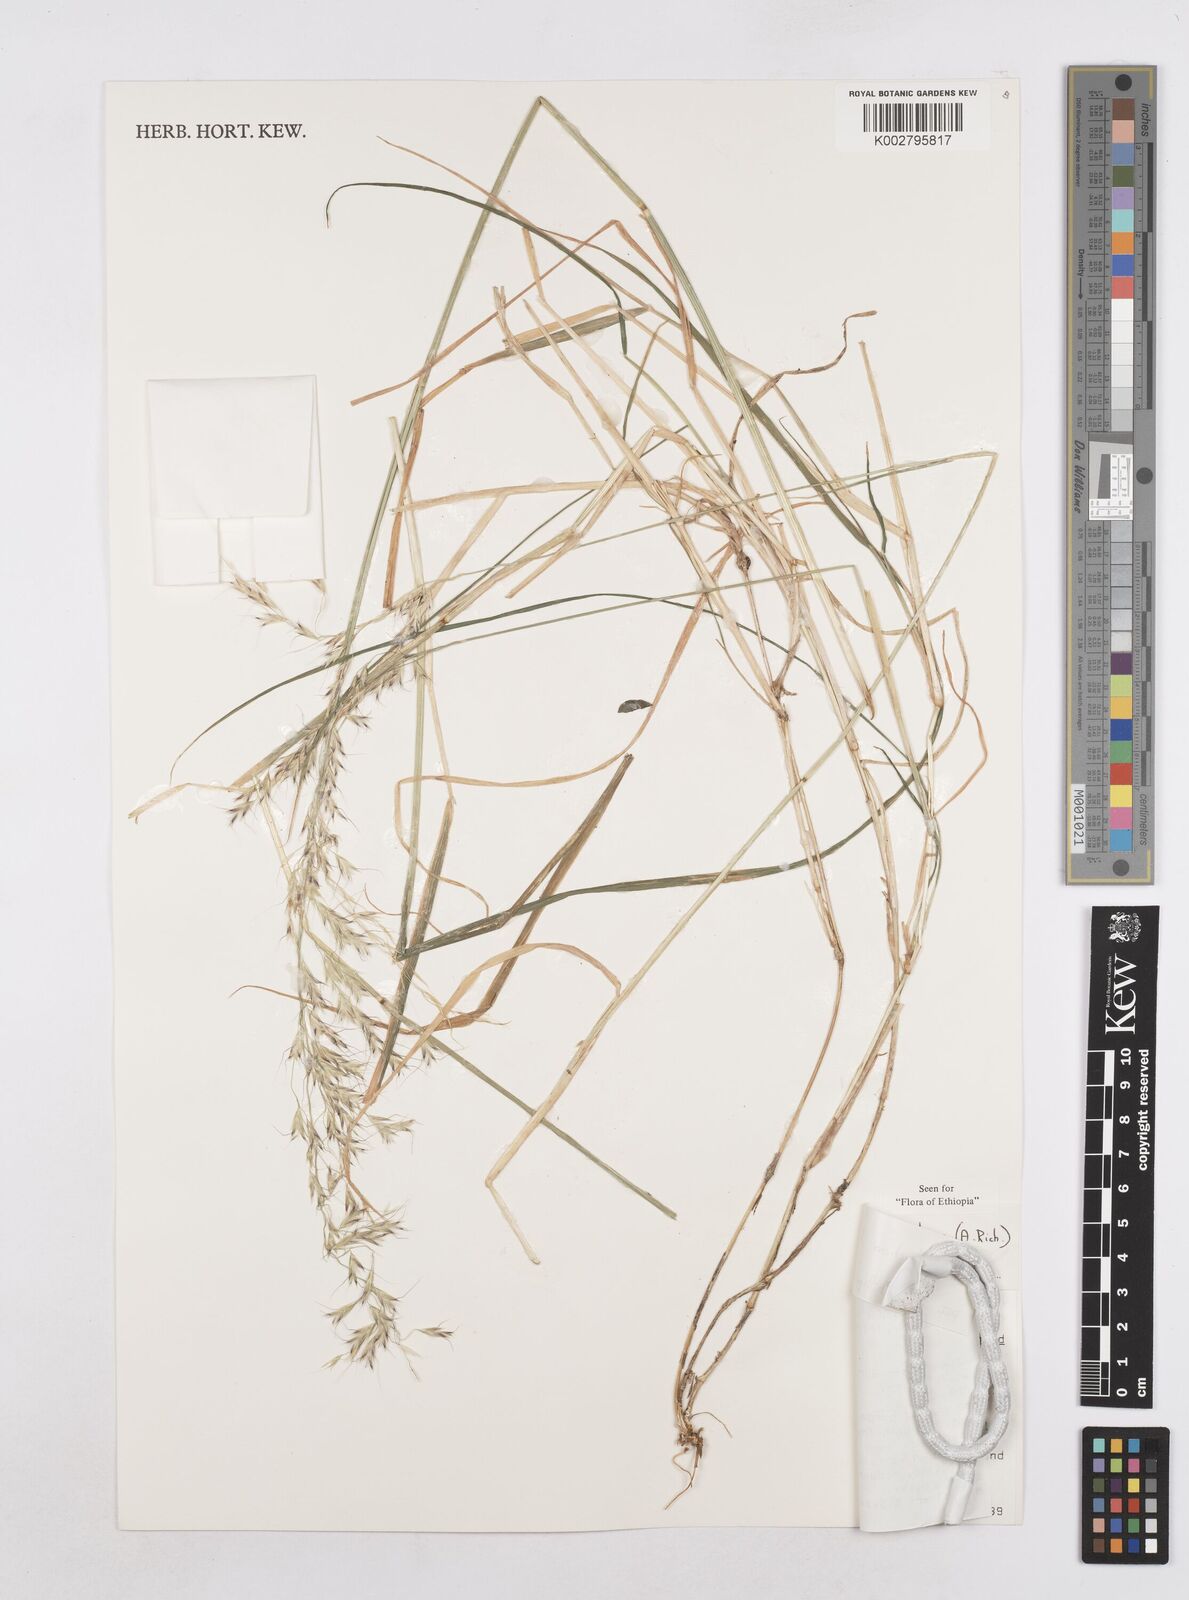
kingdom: Plantae
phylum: Tracheophyta
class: Liliopsida
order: Poales
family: Poaceae
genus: Trisetopsis
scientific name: Trisetopsis lachnantha
